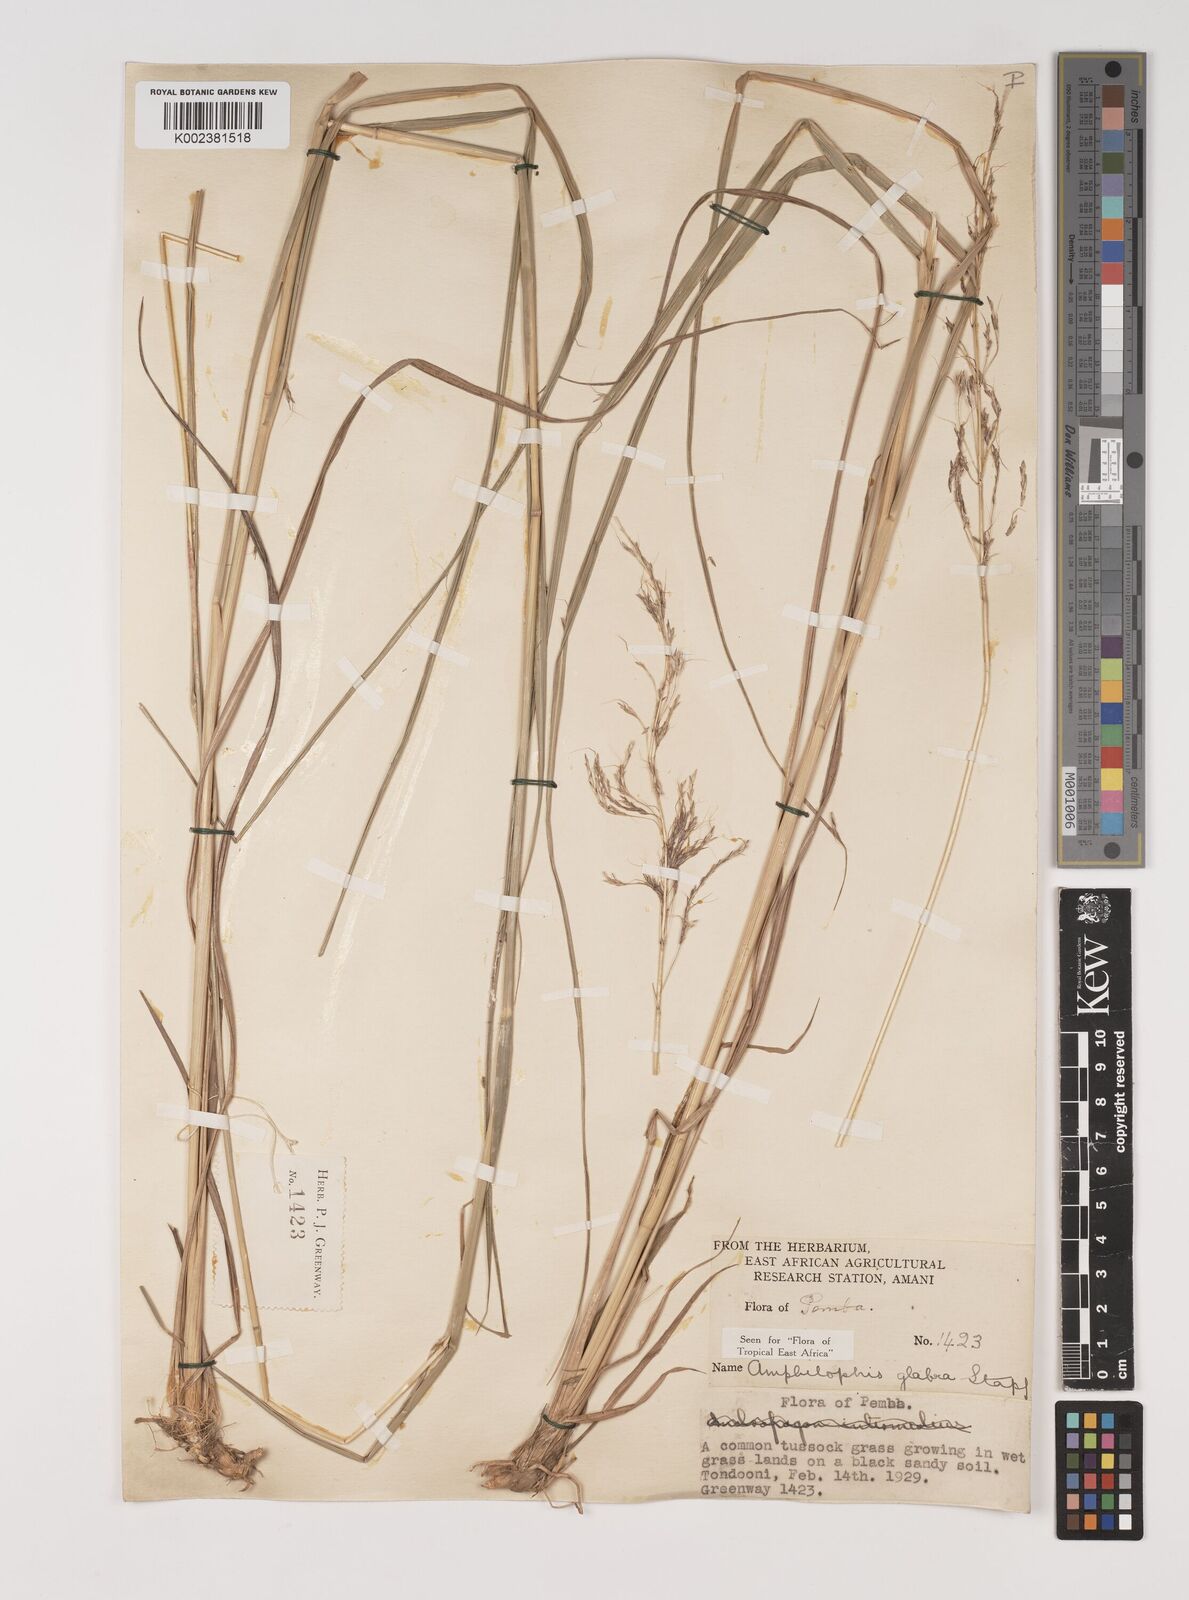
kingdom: Plantae
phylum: Tracheophyta
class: Liliopsida
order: Poales
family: Poaceae
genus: Bothriochloa
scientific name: Bothriochloa
